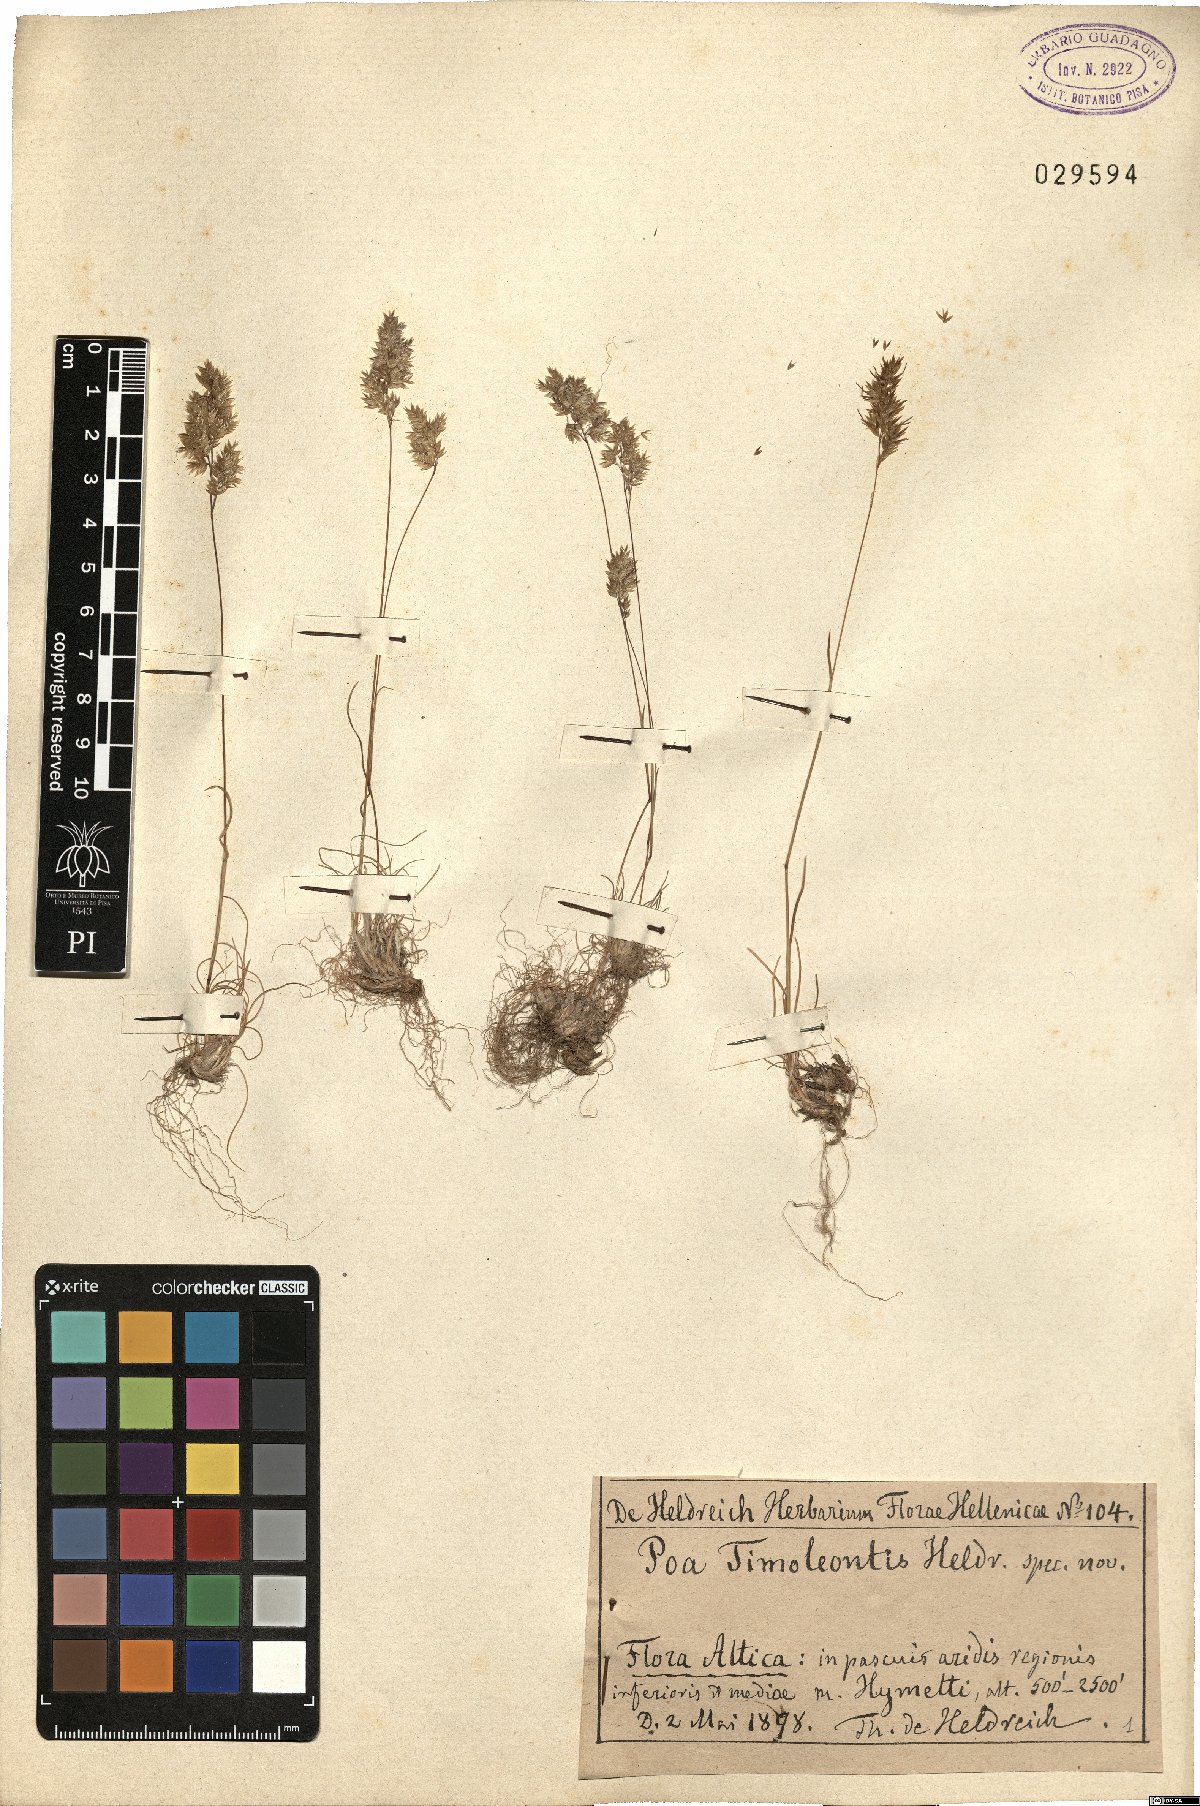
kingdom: Plantae
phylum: Tracheophyta
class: Liliopsida
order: Poales
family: Poaceae
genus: Poa
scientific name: Poa timoleontis
